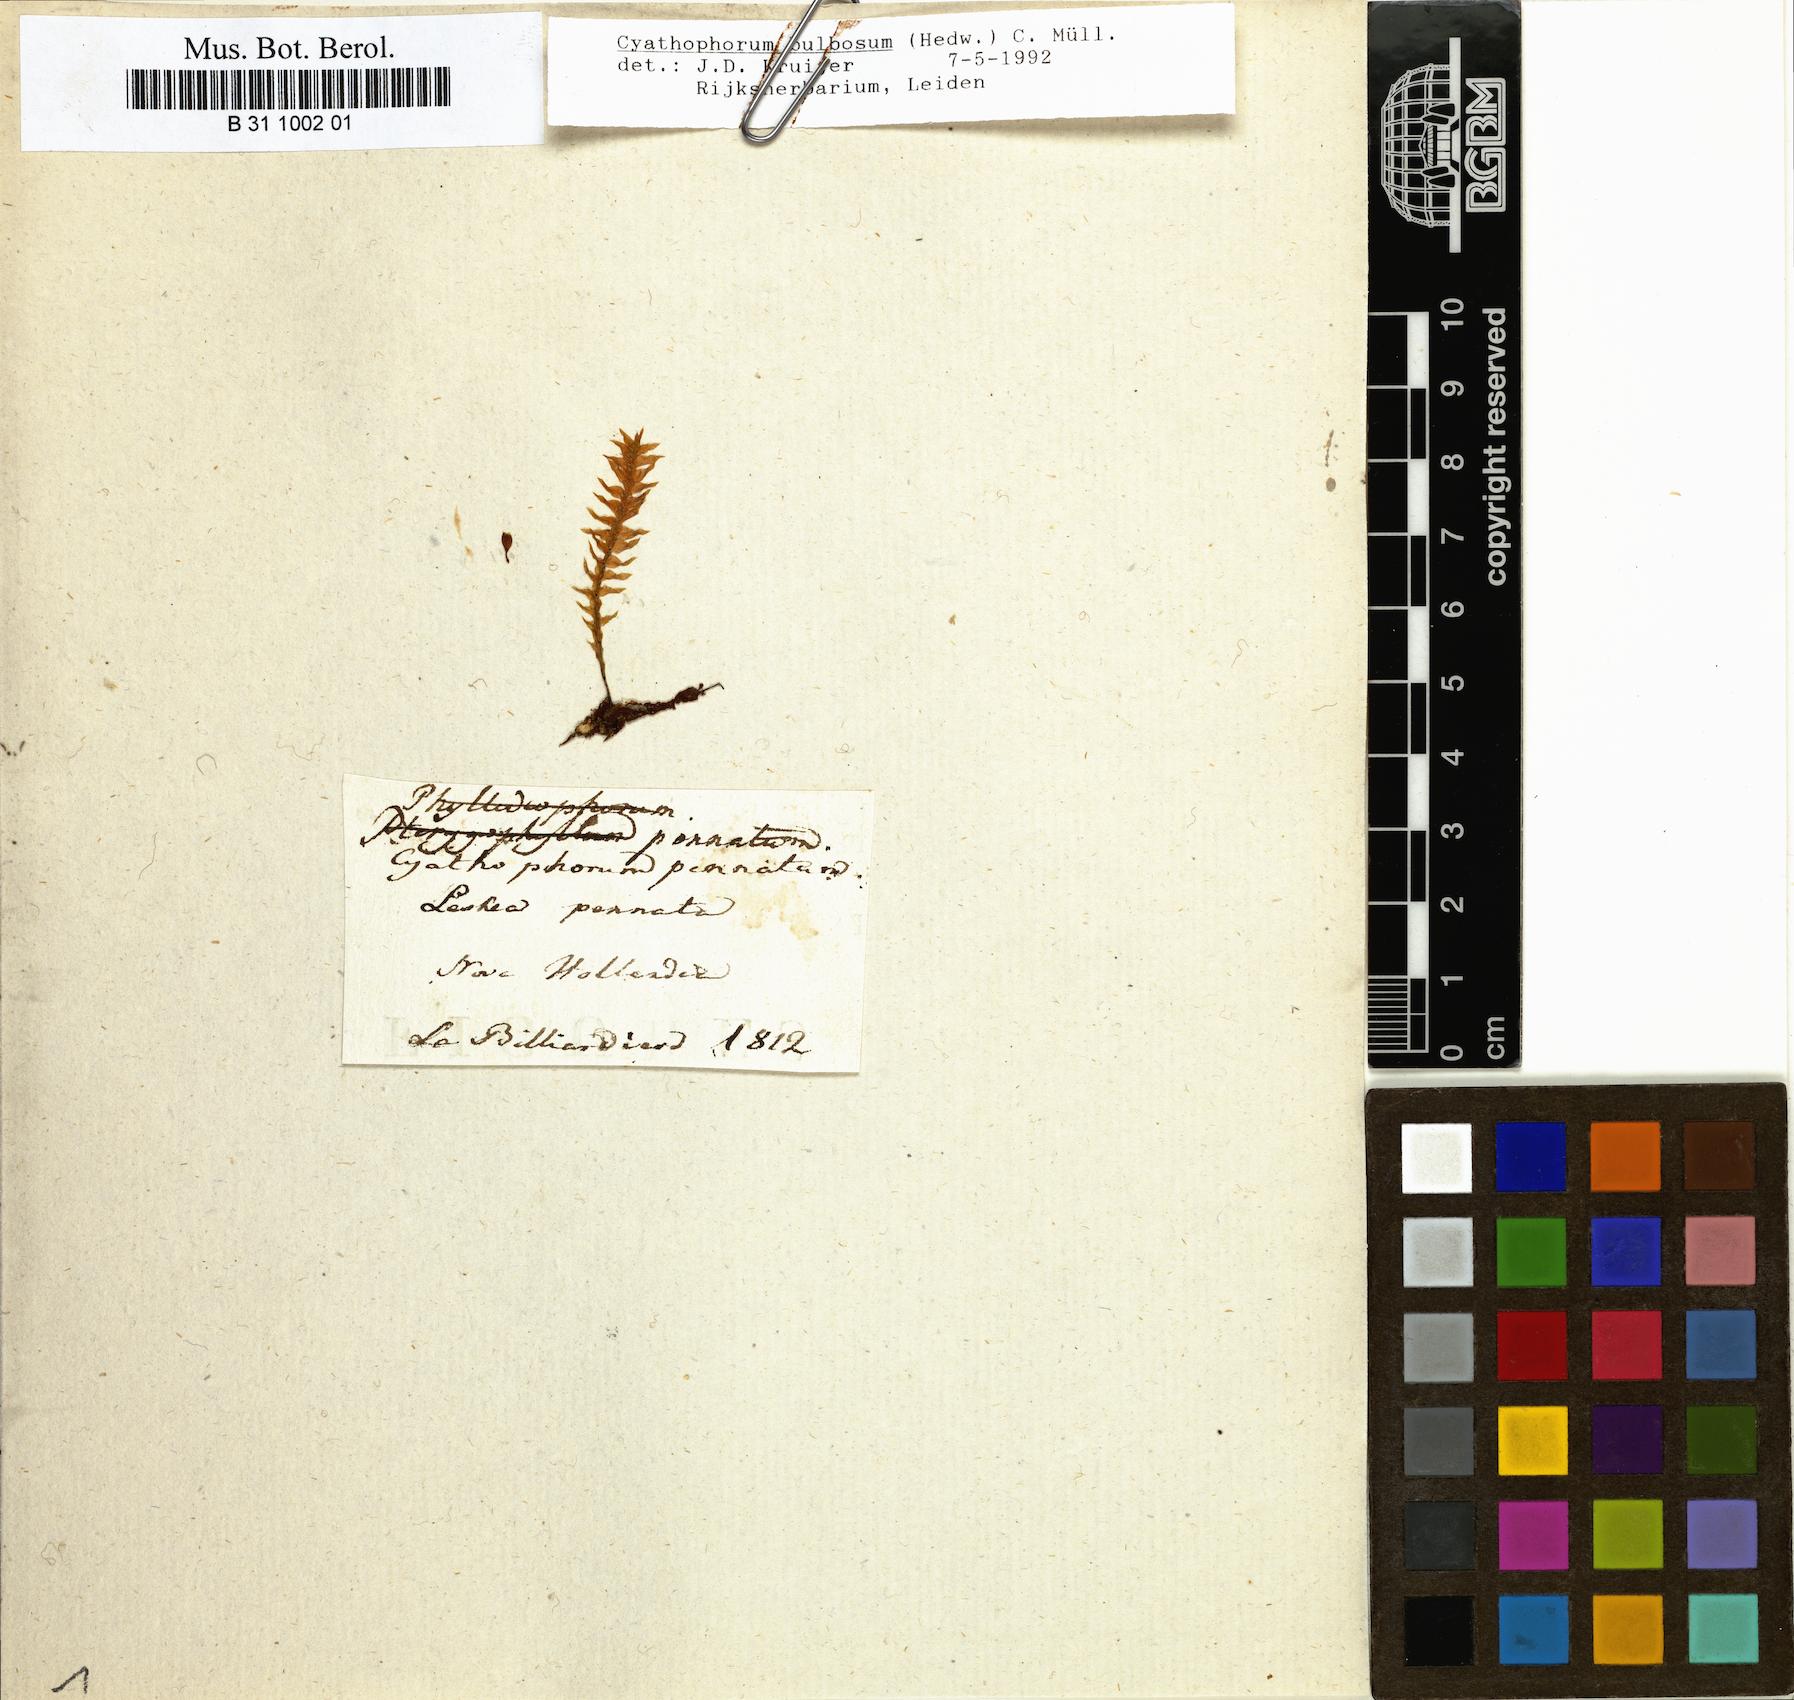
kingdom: Plantae
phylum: Bryophyta
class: Bryopsida
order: Hypopterygiales
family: Hypopterygiaceae
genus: Cyathophorum
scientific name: Cyathophorum bulbosum
